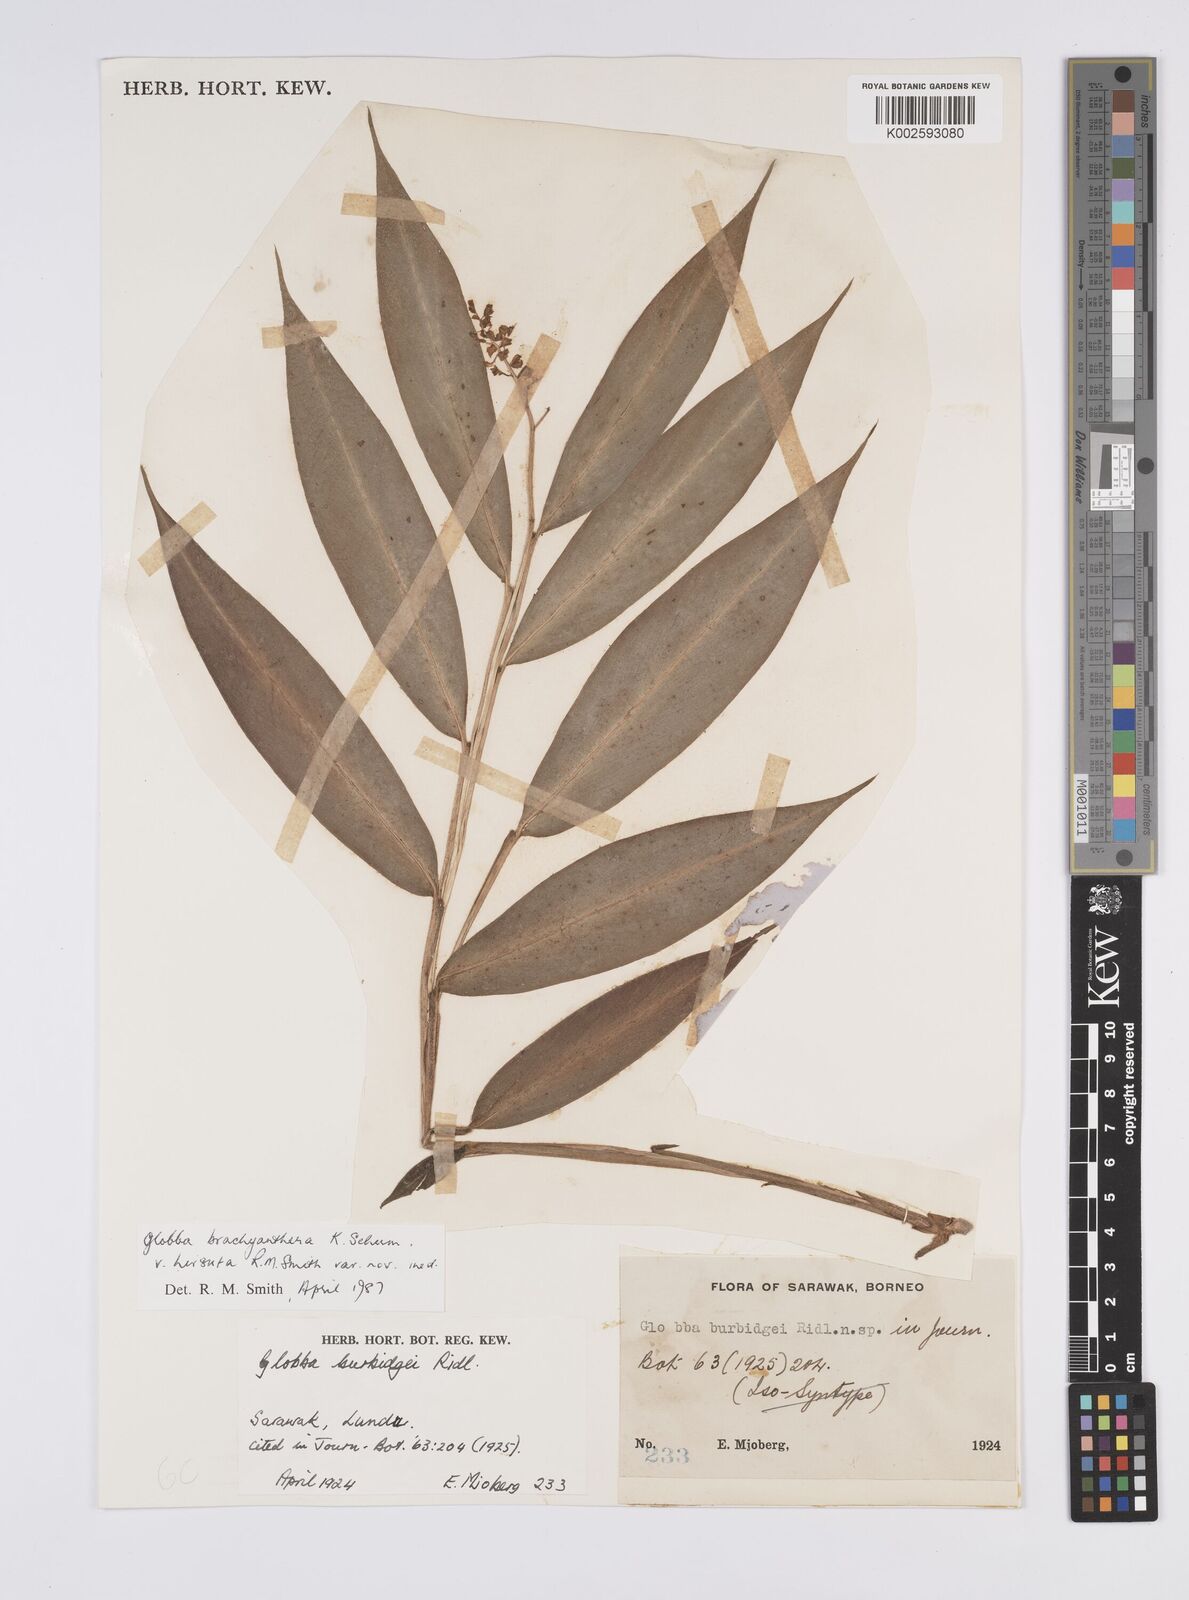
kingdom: Plantae
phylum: Tracheophyta
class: Liliopsida
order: Zingiberales
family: Zingiberaceae
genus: Globba
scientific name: Globba brachyanthera
